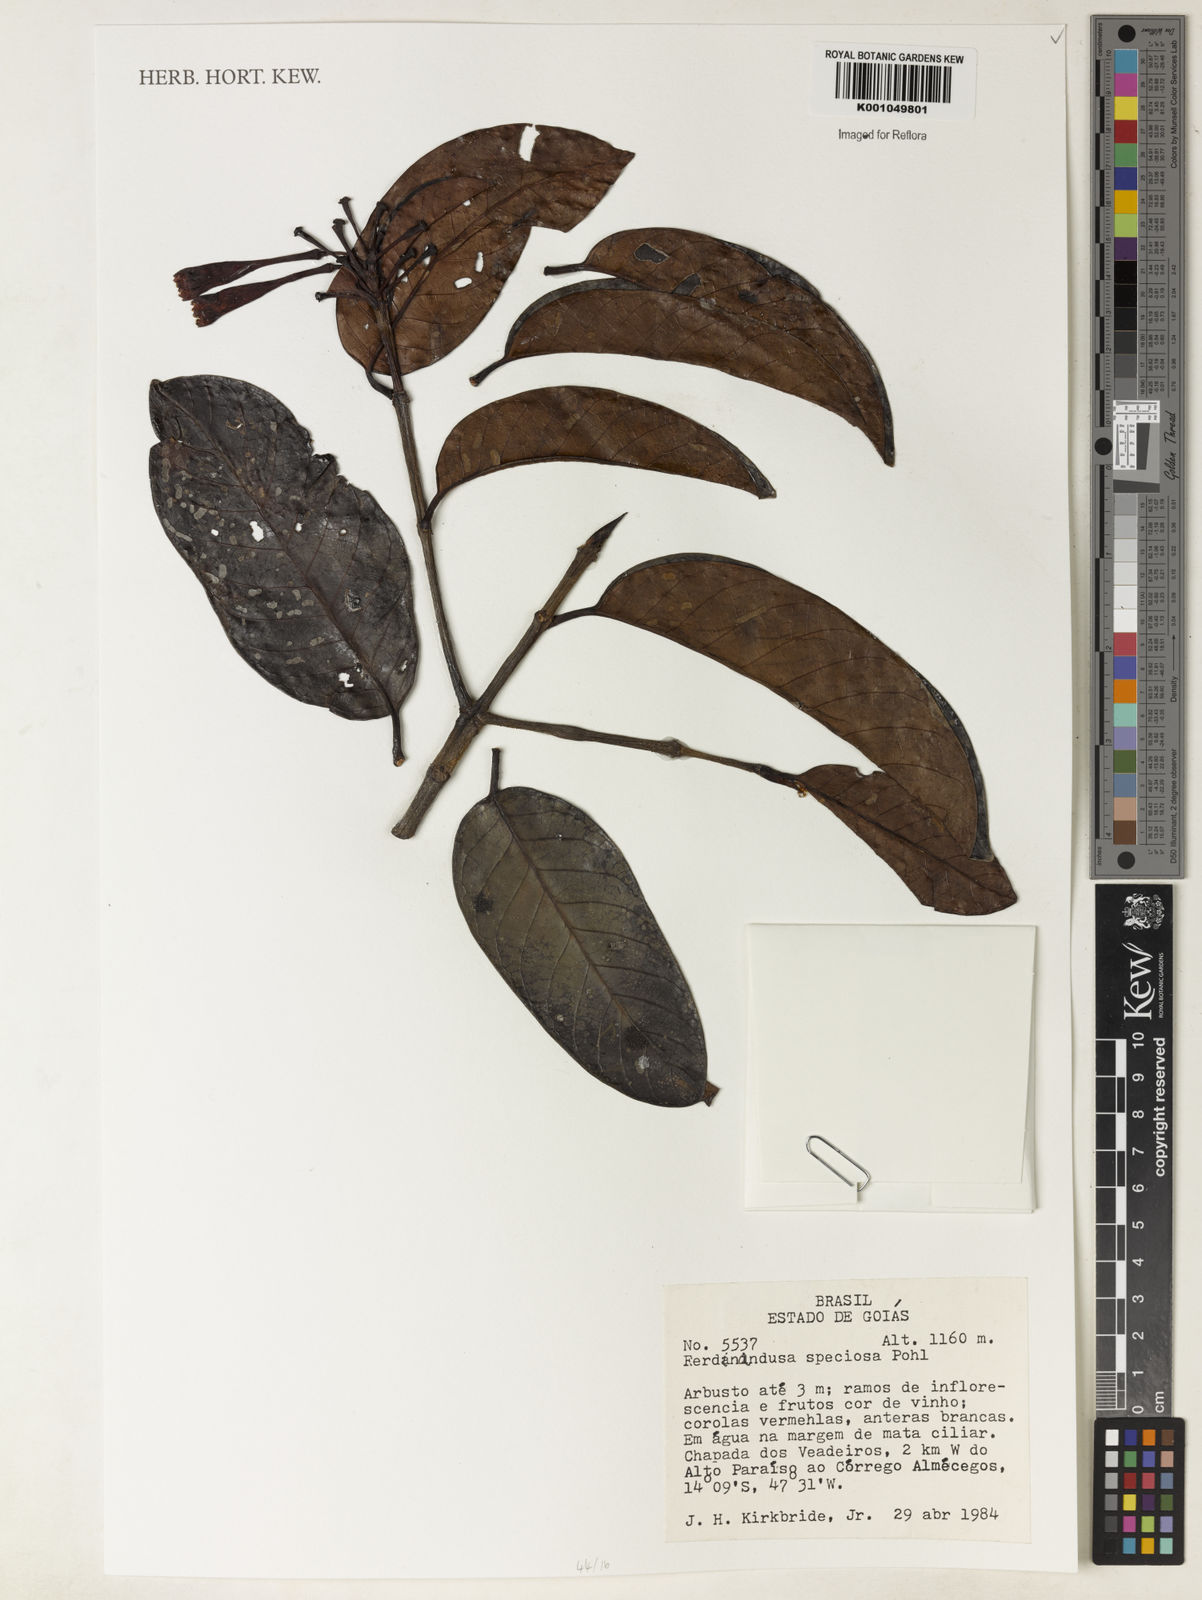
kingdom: Plantae
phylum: Tracheophyta
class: Magnoliopsida
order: Gentianales
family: Rubiaceae
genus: Ferdinandusa
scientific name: Ferdinandusa speciosa
